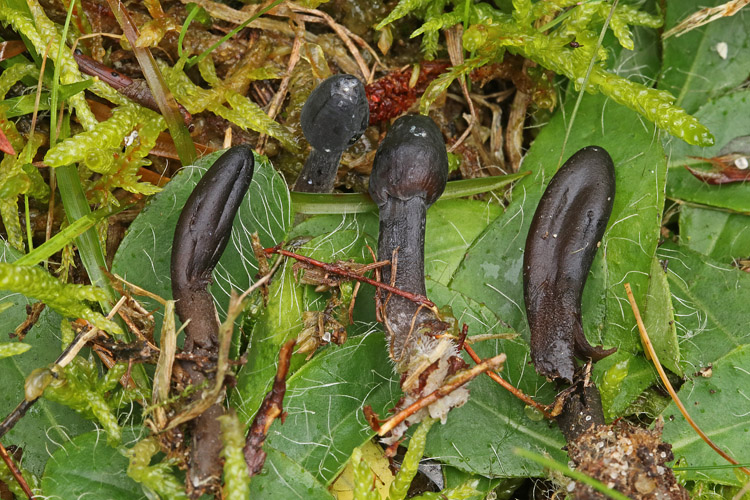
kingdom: Fungi
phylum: Ascomycota
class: Geoglossomycetes
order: Geoglossales
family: Geoglossaceae
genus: Hemileucoglossum
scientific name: Hemileucoglossum elongatum
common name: småsporet jordtunge
